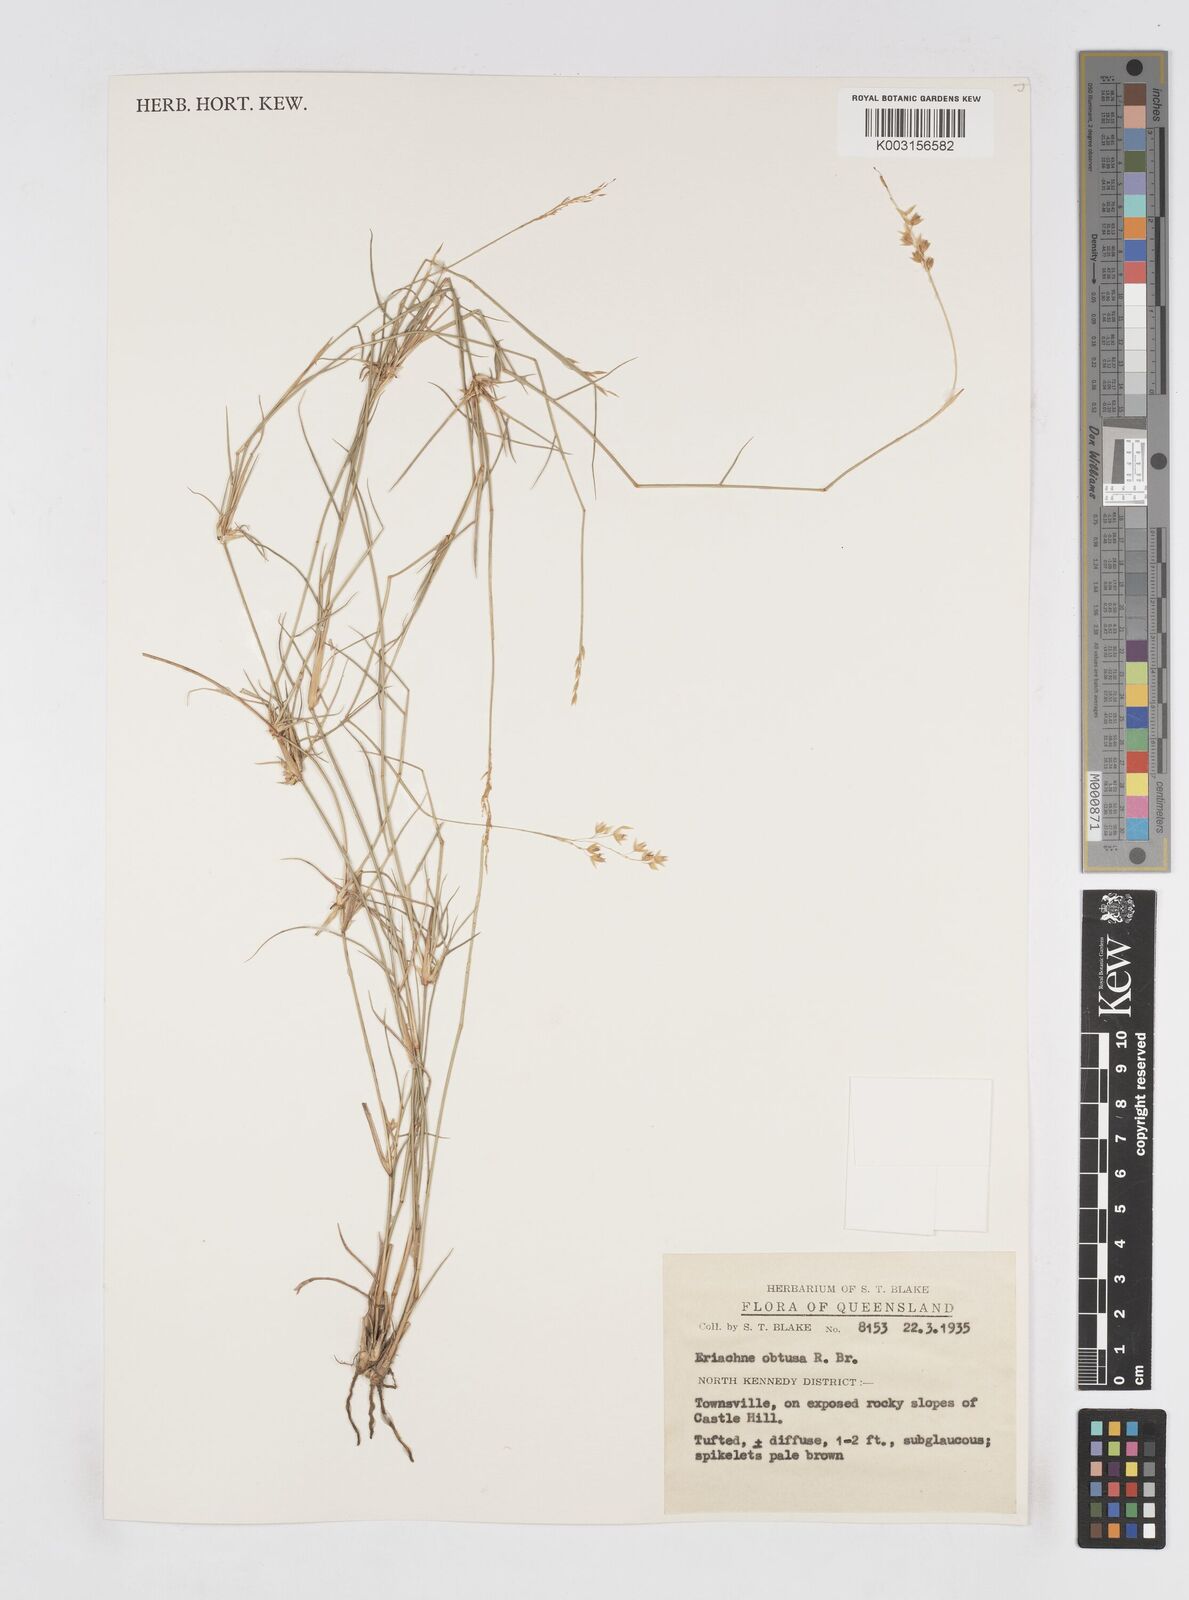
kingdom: Plantae
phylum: Tracheophyta
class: Liliopsida
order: Poales
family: Poaceae
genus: Eriachne
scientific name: Eriachne obtusa
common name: Northern wanderrie grass
